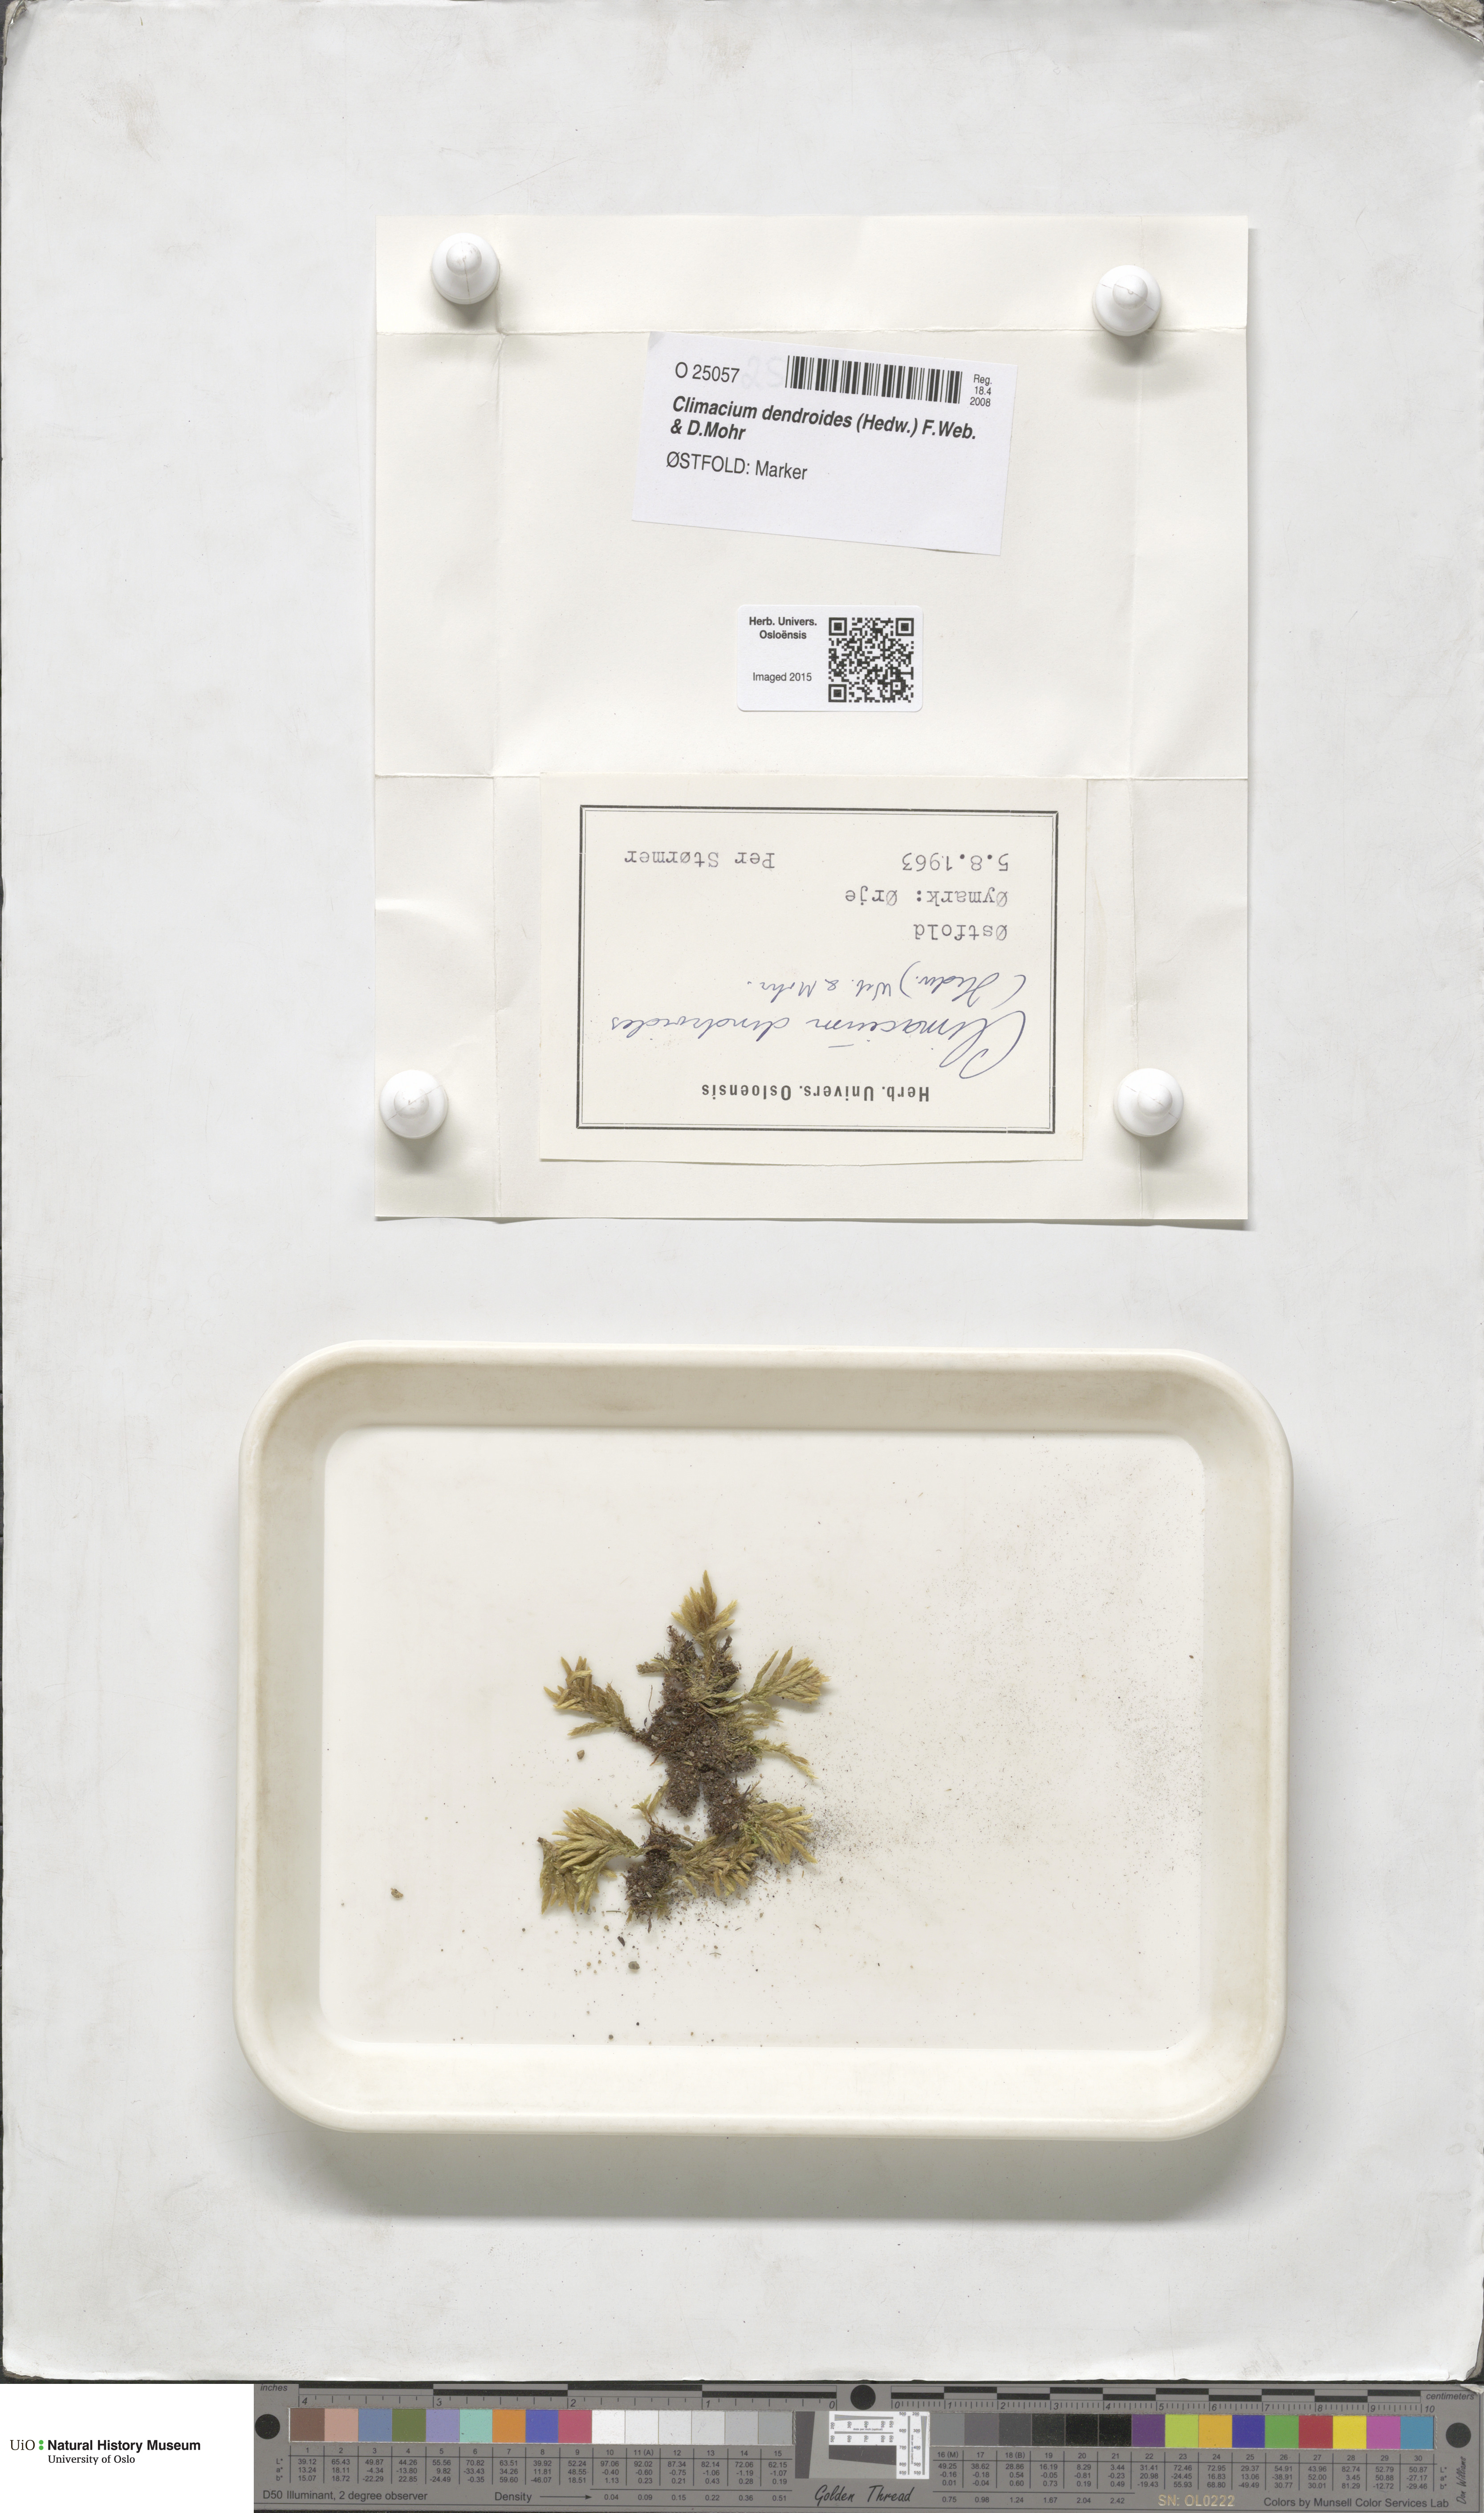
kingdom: Plantae
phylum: Bryophyta
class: Bryopsida
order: Hypnales
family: Climaciaceae
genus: Climacium
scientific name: Climacium dendroides
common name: Northern tree moss
